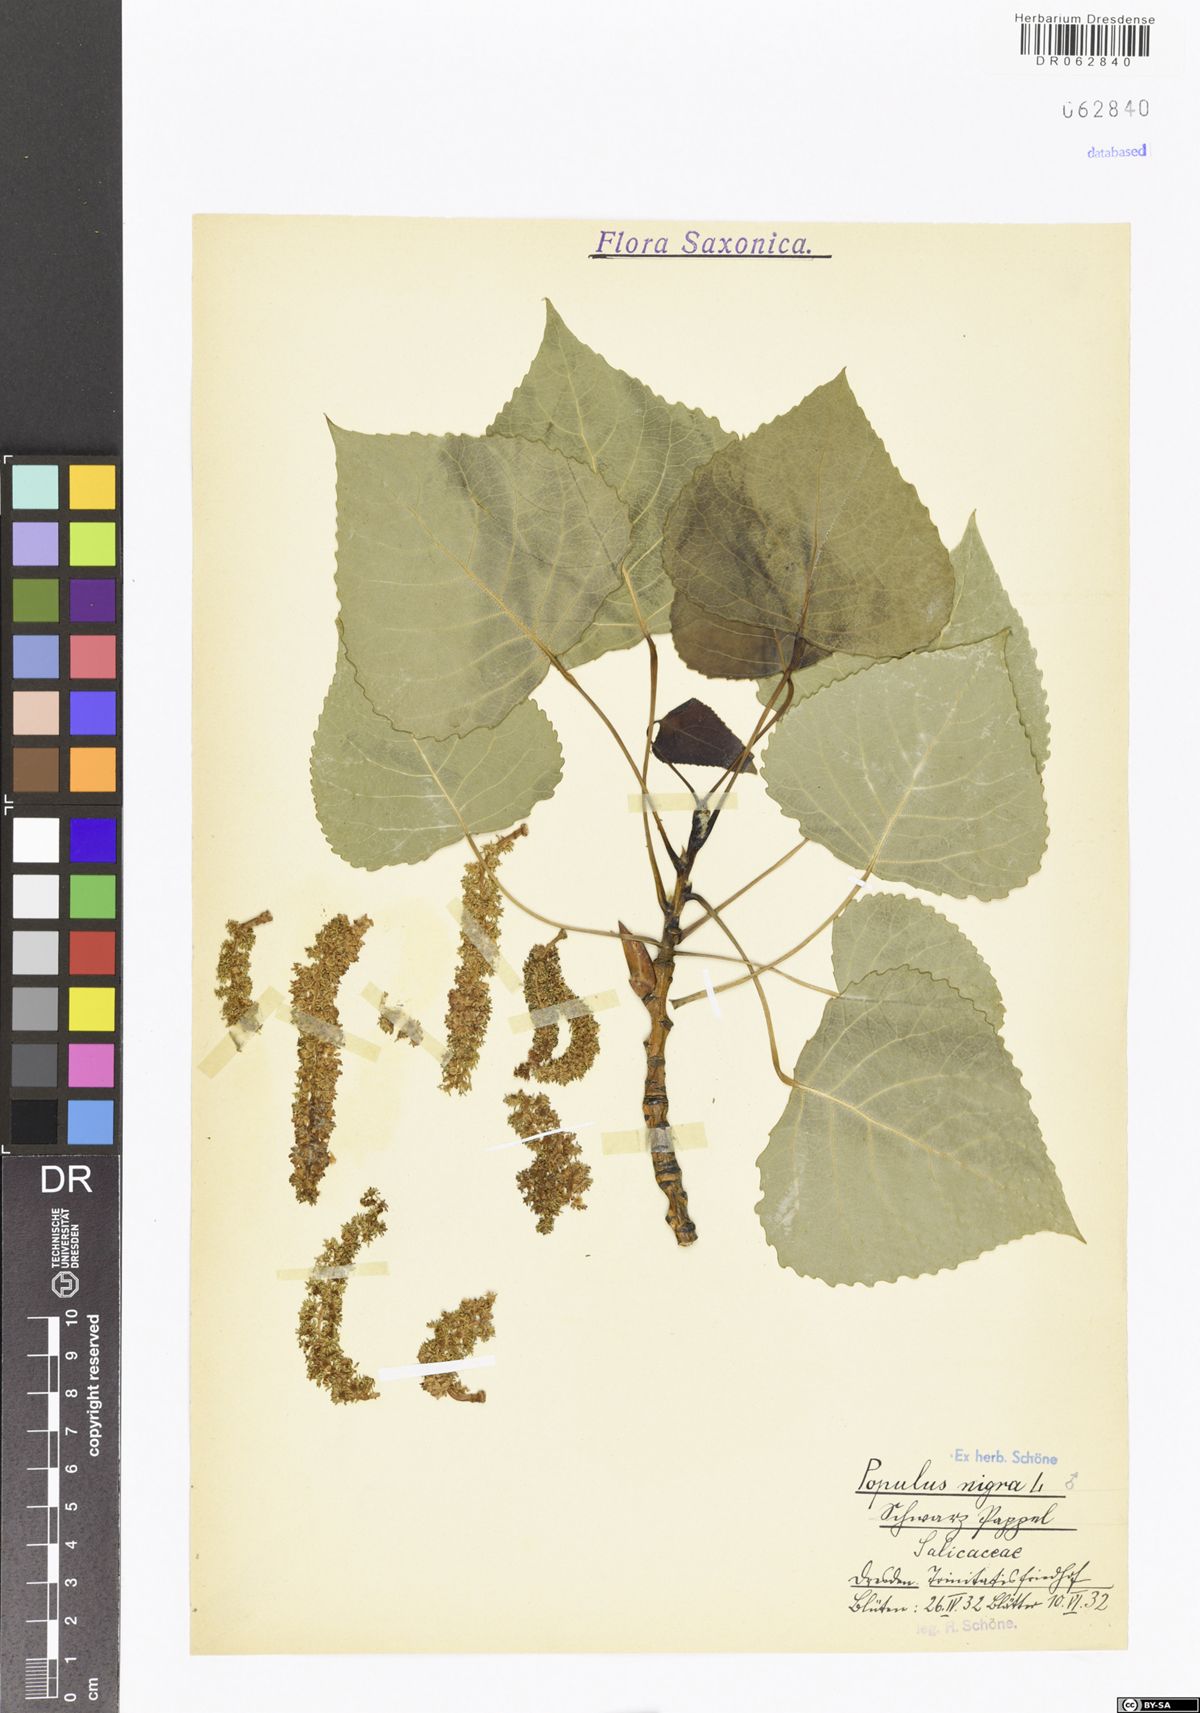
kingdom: Plantae
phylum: Tracheophyta
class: Magnoliopsida
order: Malpighiales
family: Salicaceae
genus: Populus
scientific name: Populus nigra
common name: Black poplar
